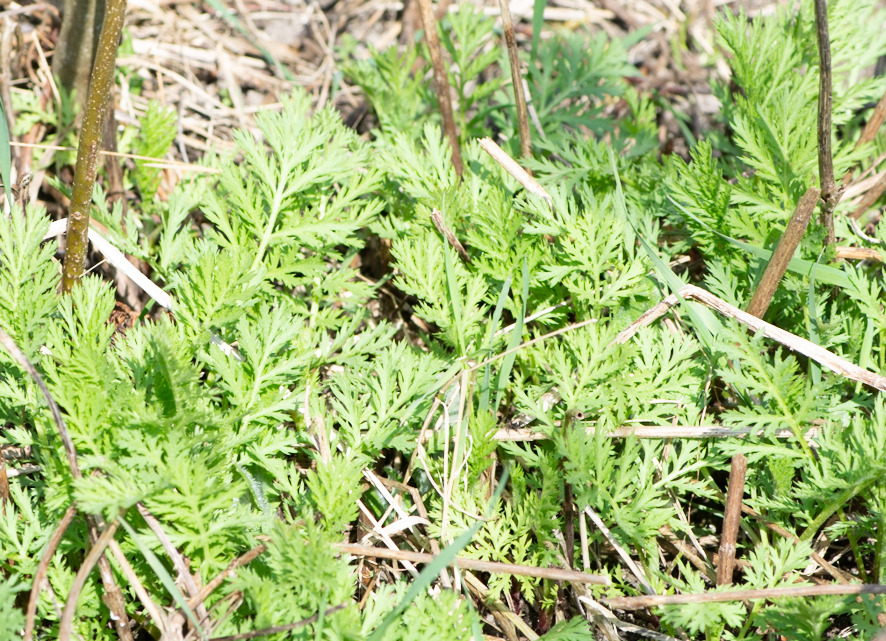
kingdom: Plantae
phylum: Tracheophyta
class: Magnoliopsida
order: Asterales
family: Asteraceae
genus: Tanacetum
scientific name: Tanacetum vulgare
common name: Rejnfan
